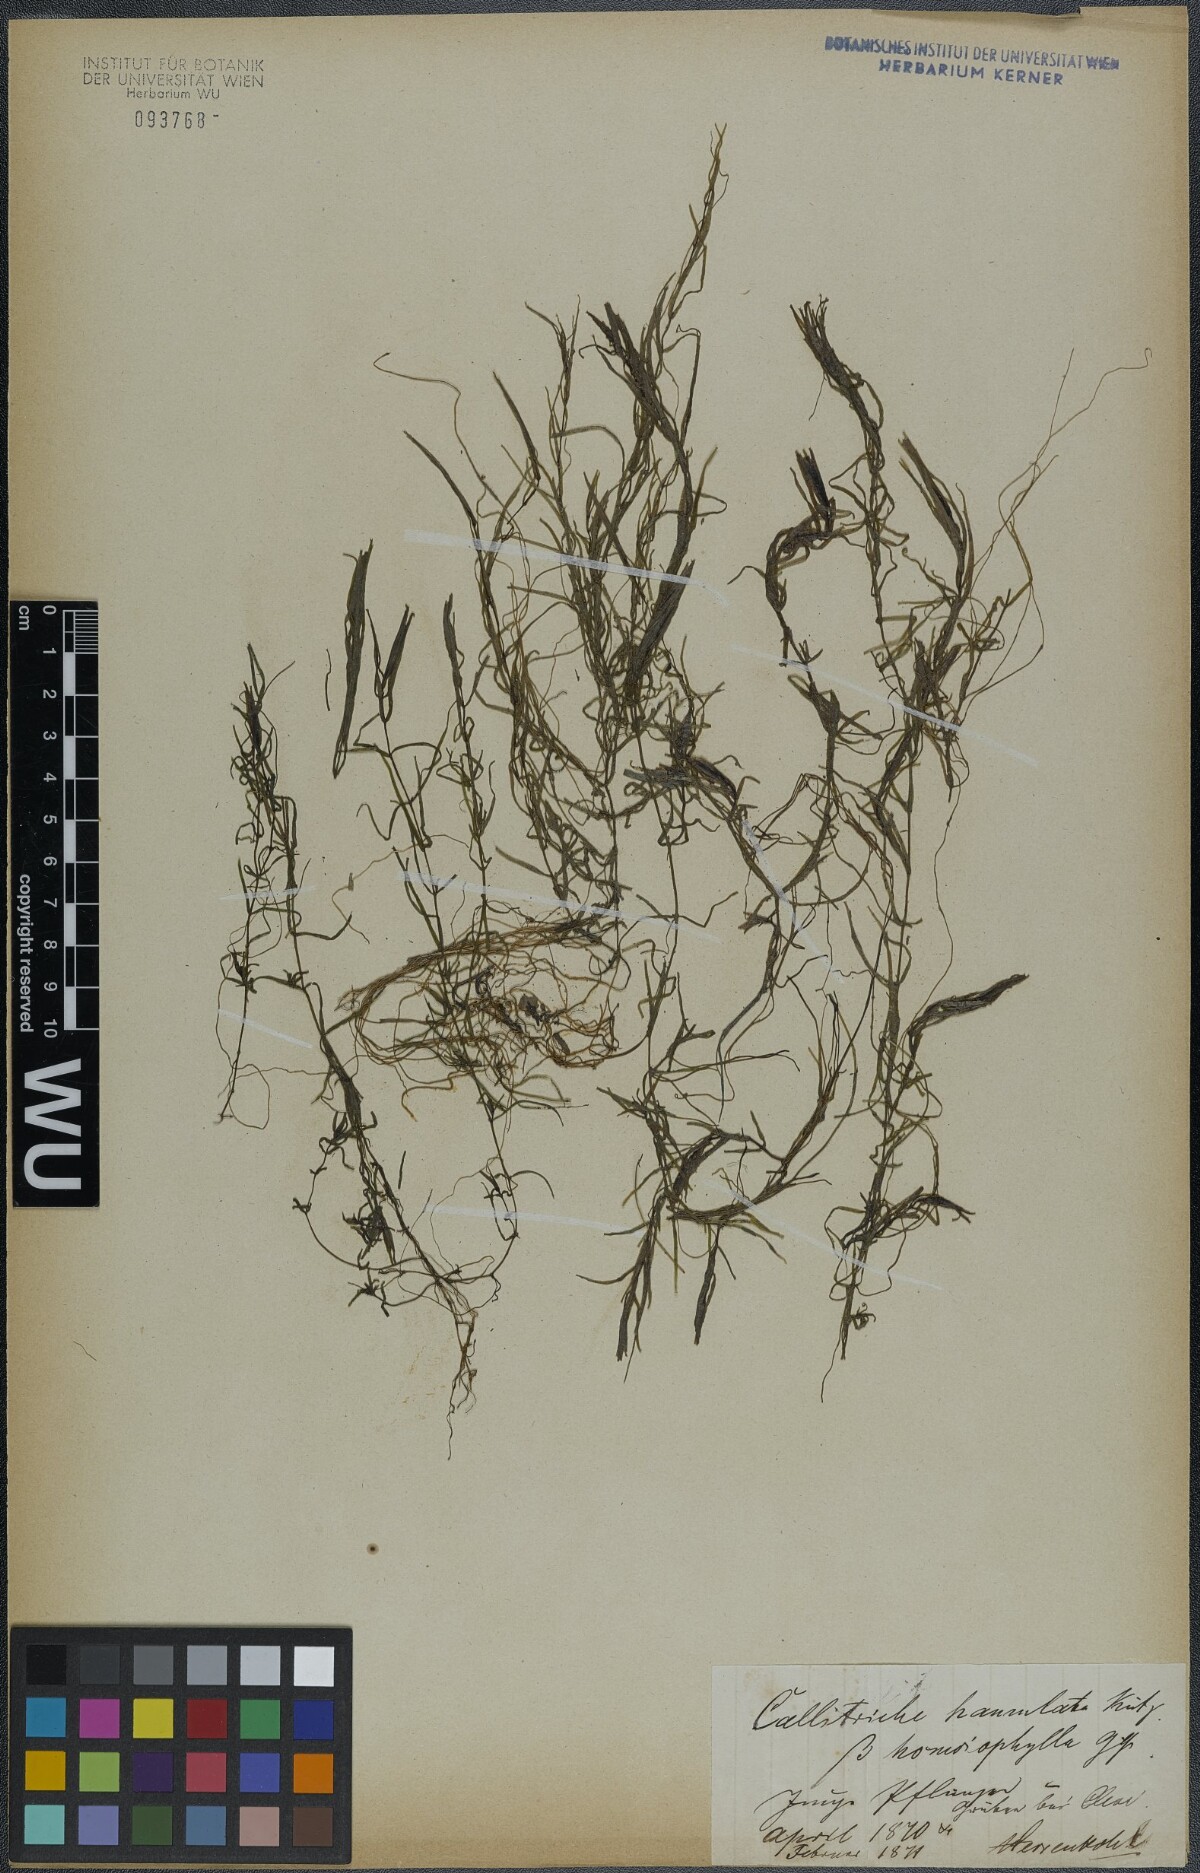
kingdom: Plantae
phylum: Tracheophyta
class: Magnoliopsida
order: Lamiales
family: Plantaginaceae
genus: Callitriche
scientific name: Callitriche hamulata
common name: Intermediate water-starwort
